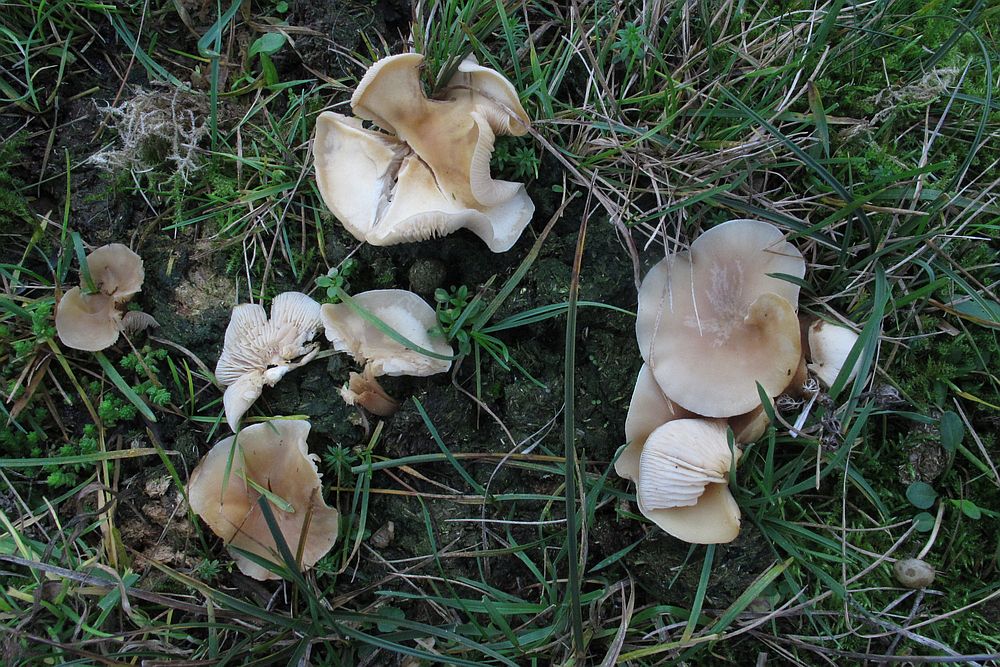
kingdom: Fungi
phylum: Basidiomycota
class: Agaricomycetes
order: Agaricales
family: Tricholomataceae
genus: Clitocybe
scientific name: Clitocybe amarescens
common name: gødnings-tragthat
